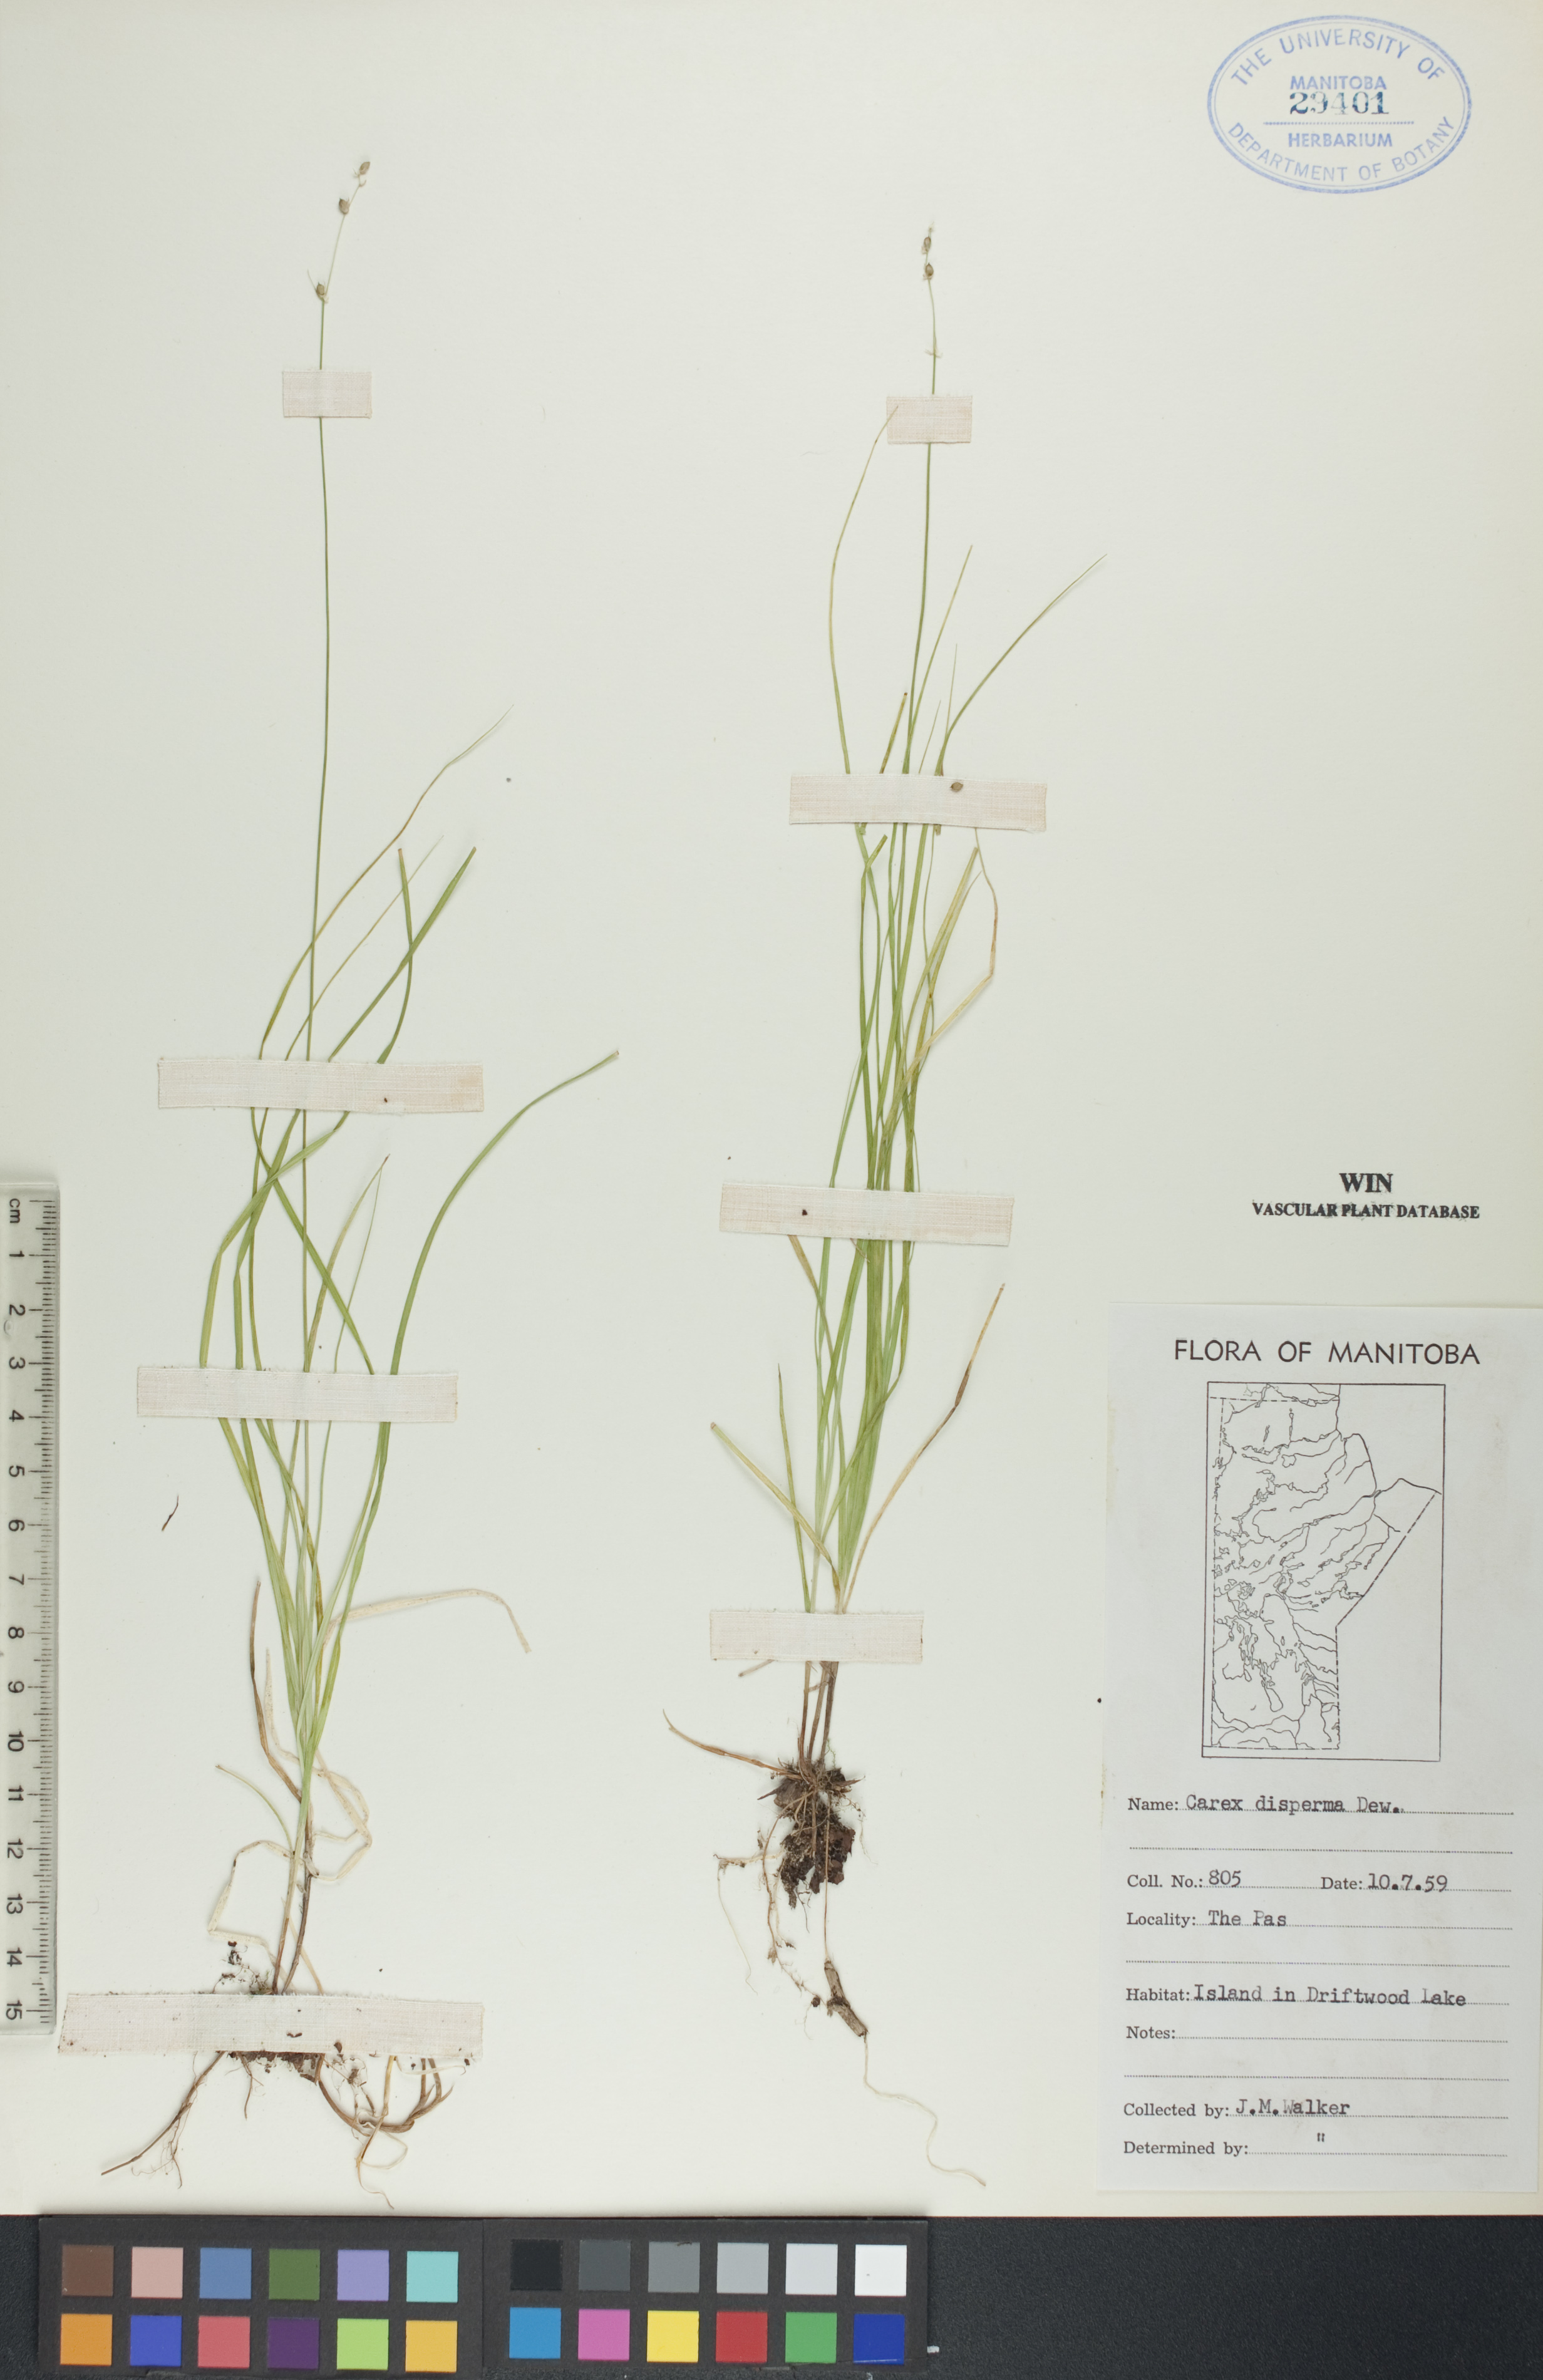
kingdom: Plantae
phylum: Tracheophyta
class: Liliopsida
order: Poales
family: Cyperaceae
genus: Carex
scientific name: Carex disperma
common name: Short-leaved sedge
